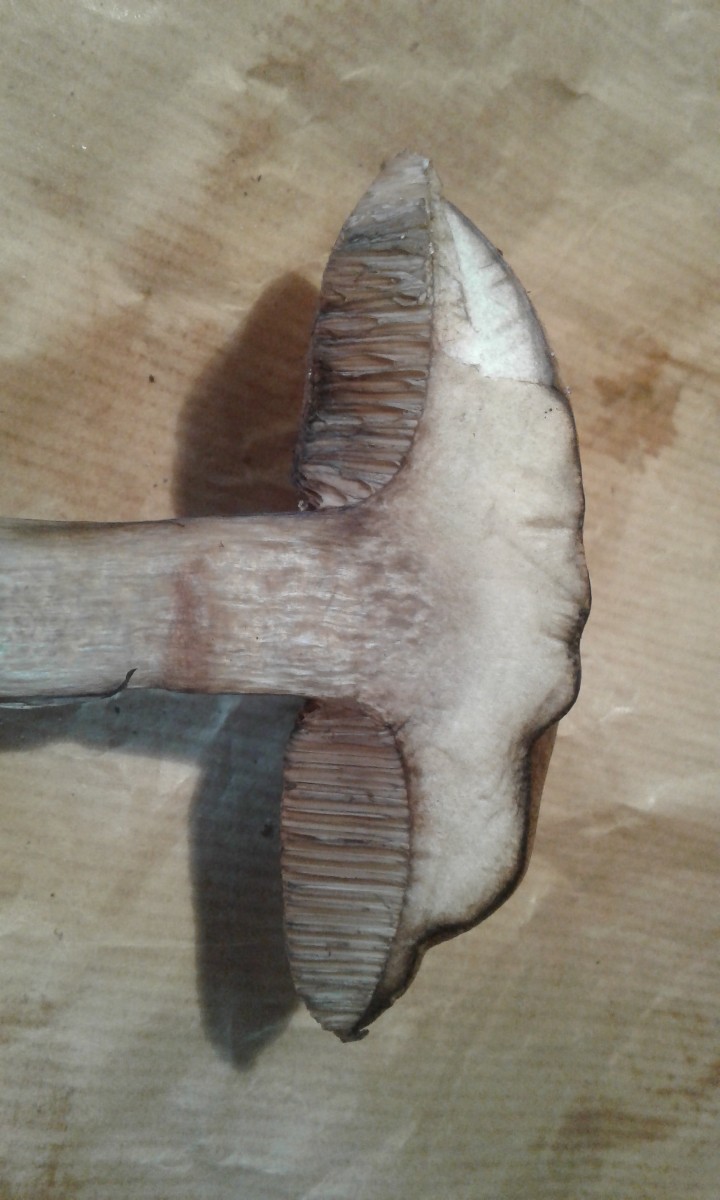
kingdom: Fungi
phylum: Basidiomycota
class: Agaricomycetes
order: Boletales
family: Boletaceae
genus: Porphyrellus
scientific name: Porphyrellus porphyrosporus
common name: sodrørhat
